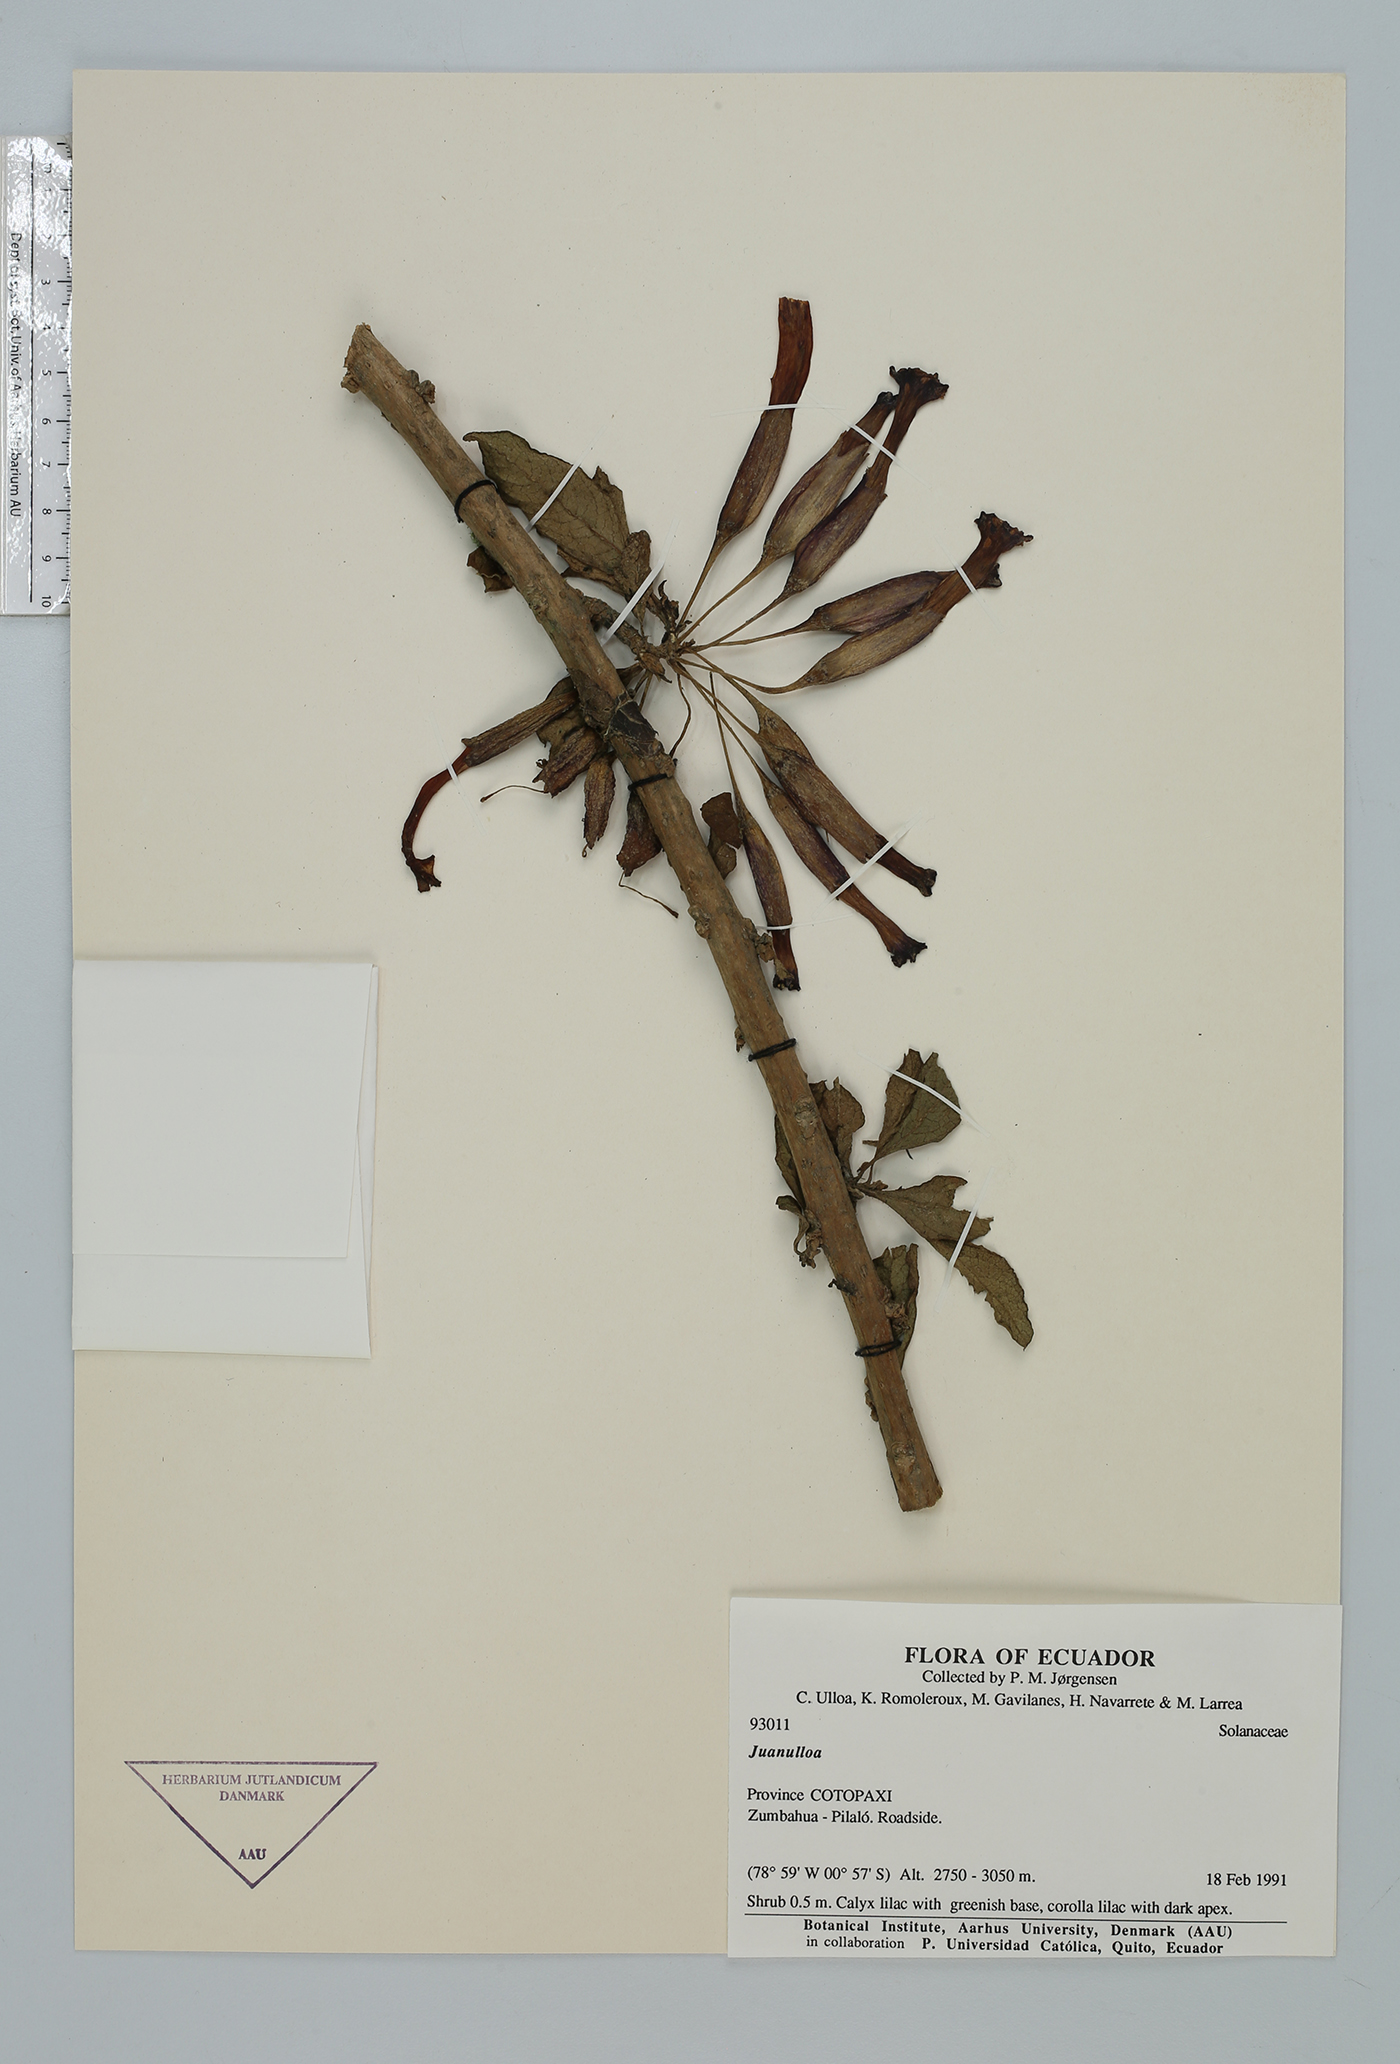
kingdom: Plantae
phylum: Tracheophyta
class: Magnoliopsida
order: Solanales
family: Solanaceae
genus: Juanulloa
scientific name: Juanulloa
